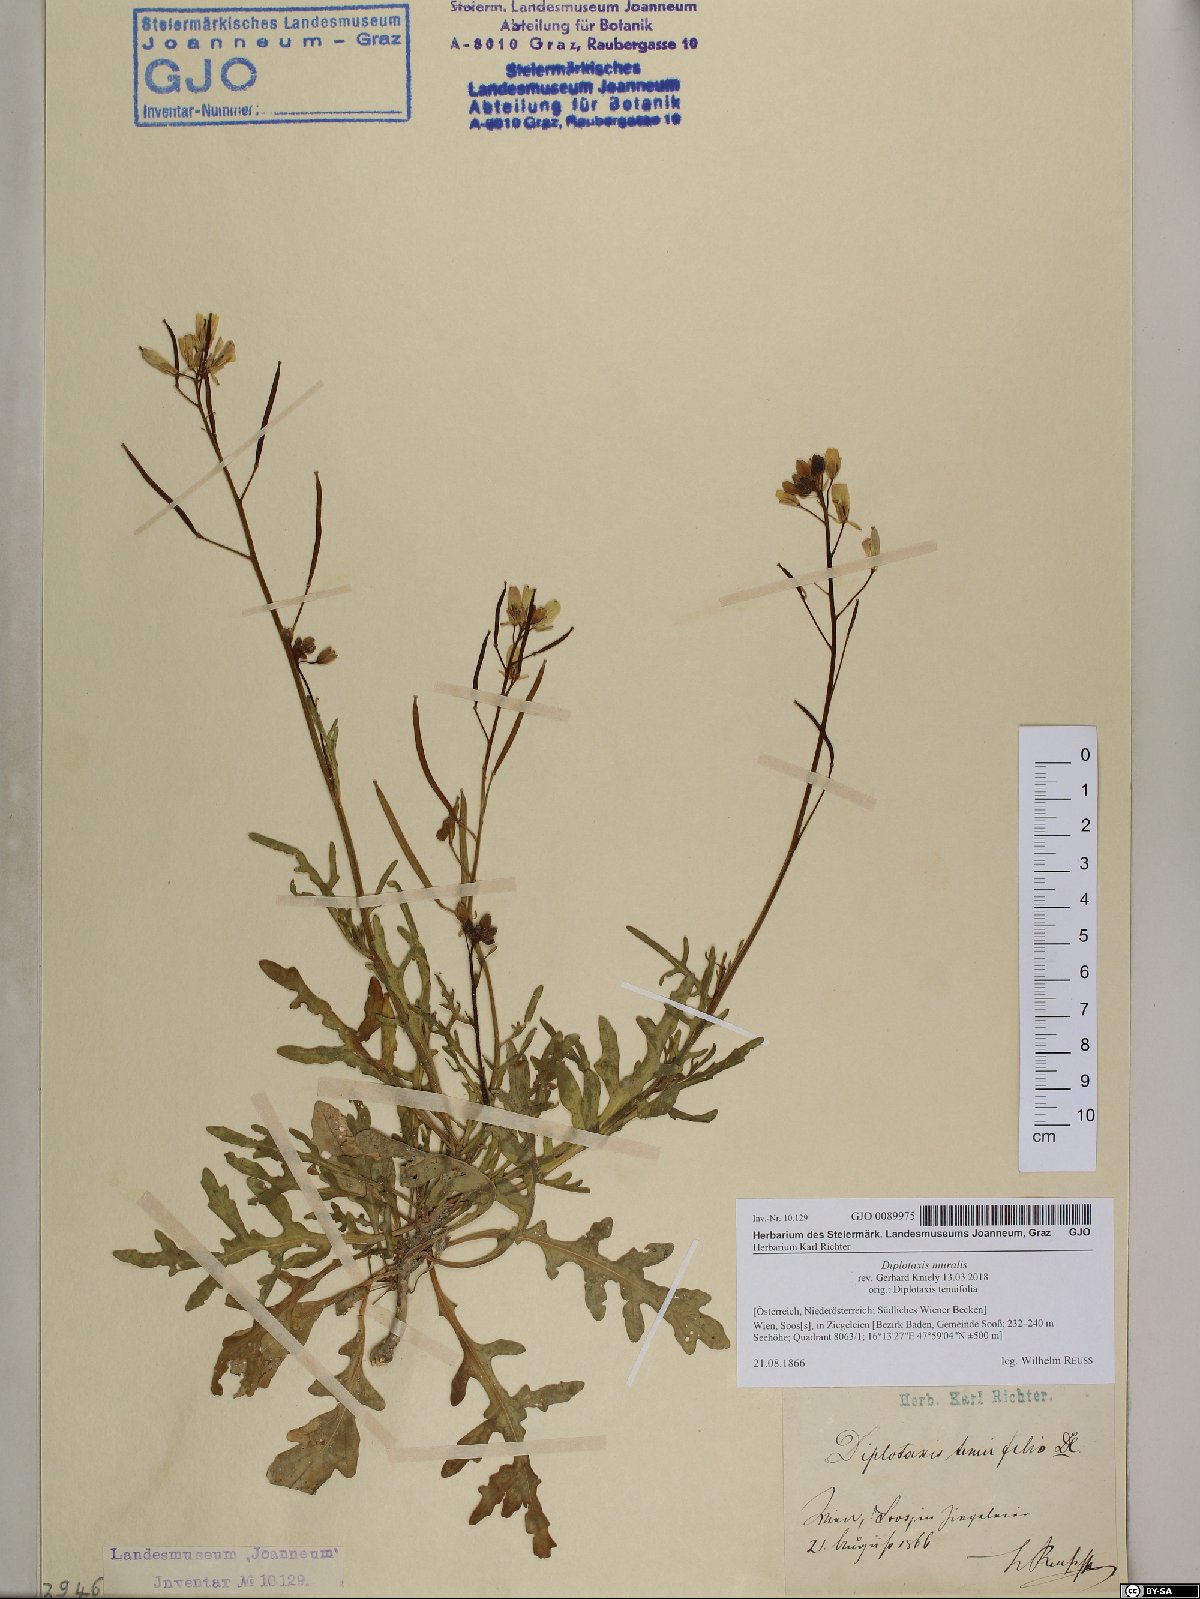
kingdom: Plantae
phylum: Tracheophyta
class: Magnoliopsida
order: Brassicales
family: Brassicaceae
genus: Diplotaxis
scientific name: Diplotaxis muralis
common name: Annual wall-rocket
